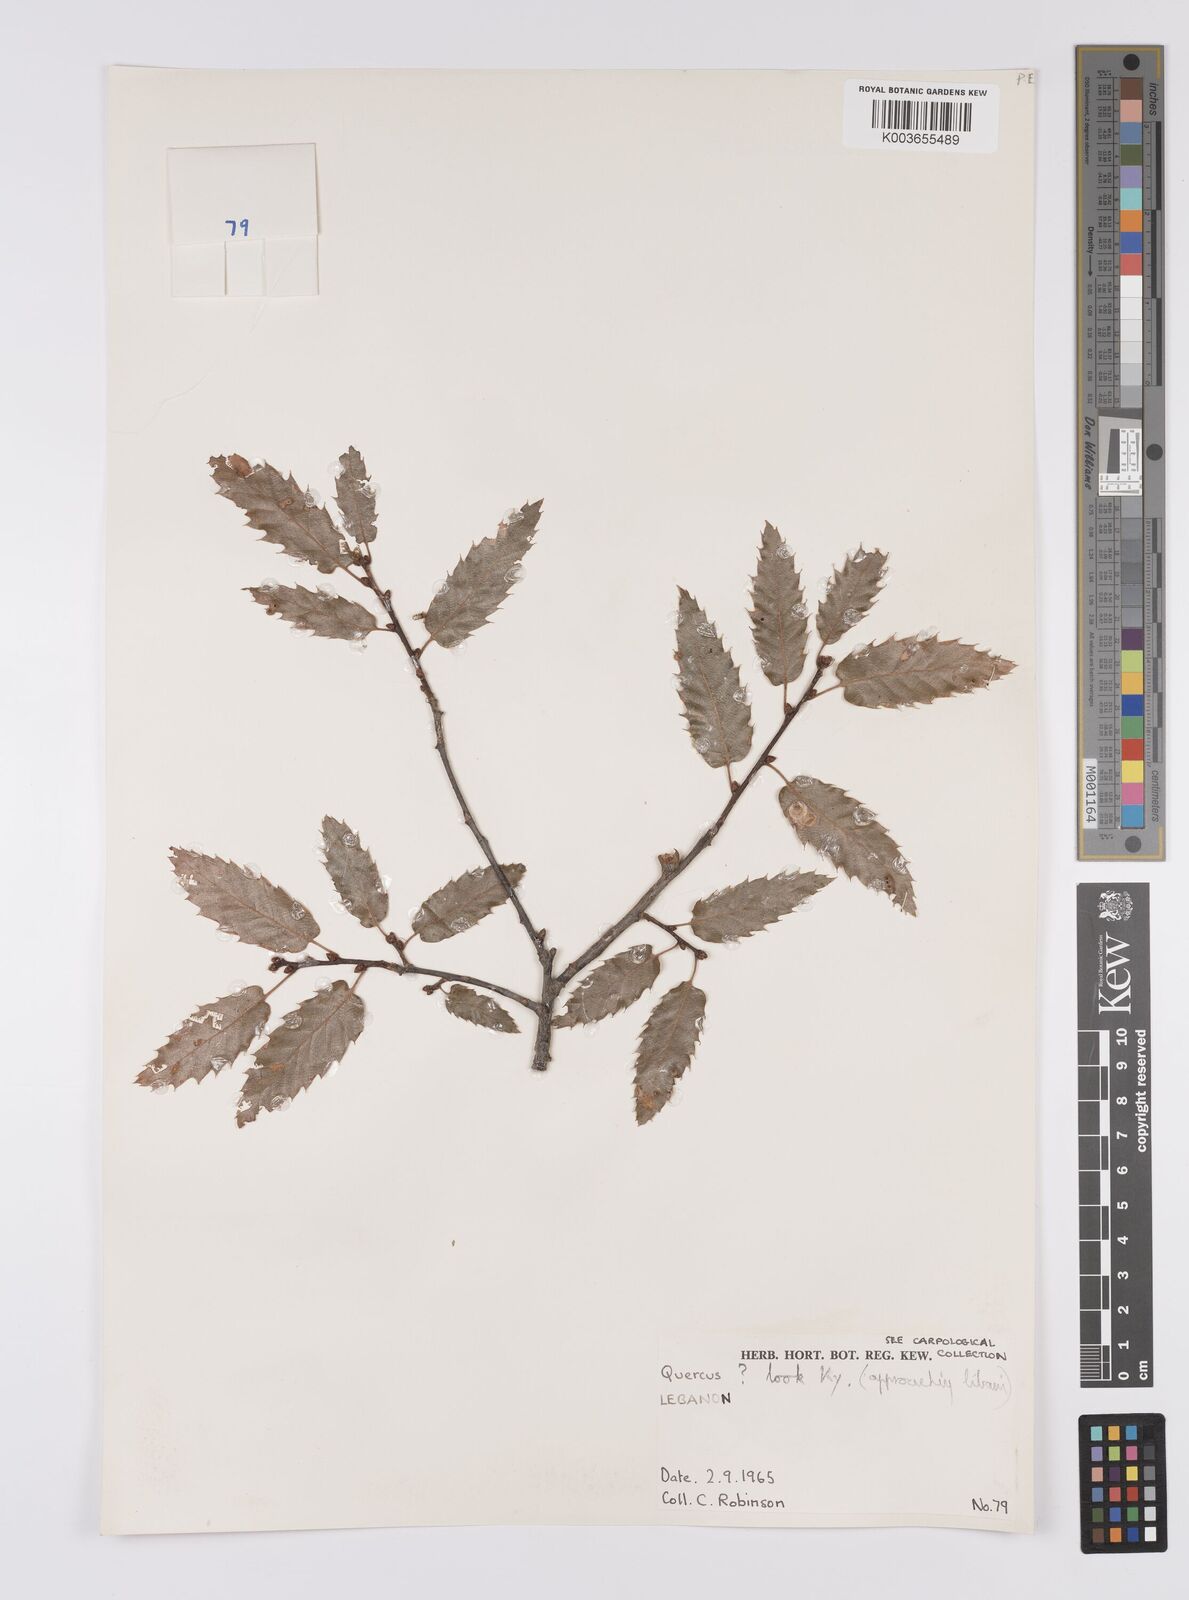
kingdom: Plantae
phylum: Tracheophyta
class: Magnoliopsida
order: Fagales
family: Fagaceae
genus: Quercus
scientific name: Quercus look
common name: Look oak
